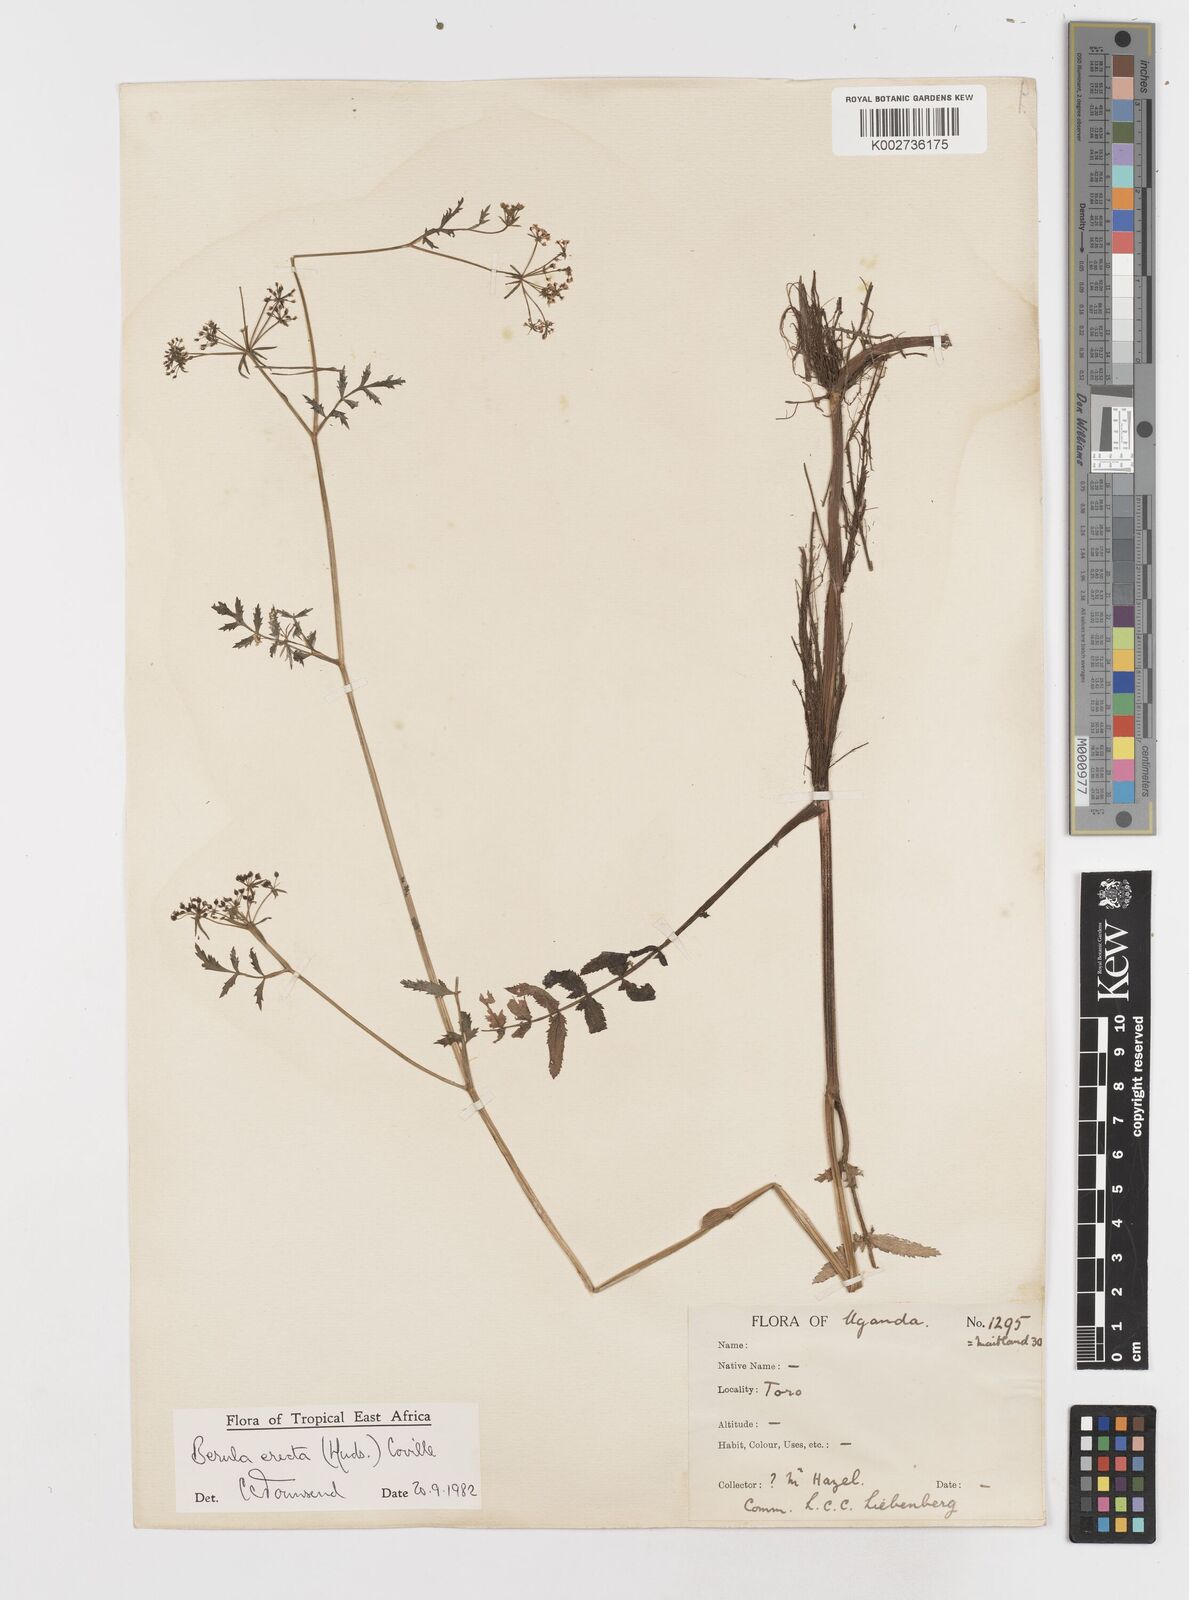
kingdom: Plantae
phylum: Tracheophyta
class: Magnoliopsida
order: Apiales
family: Apiaceae
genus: Berula
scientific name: Berula erecta
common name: Lesser water-parsnip
